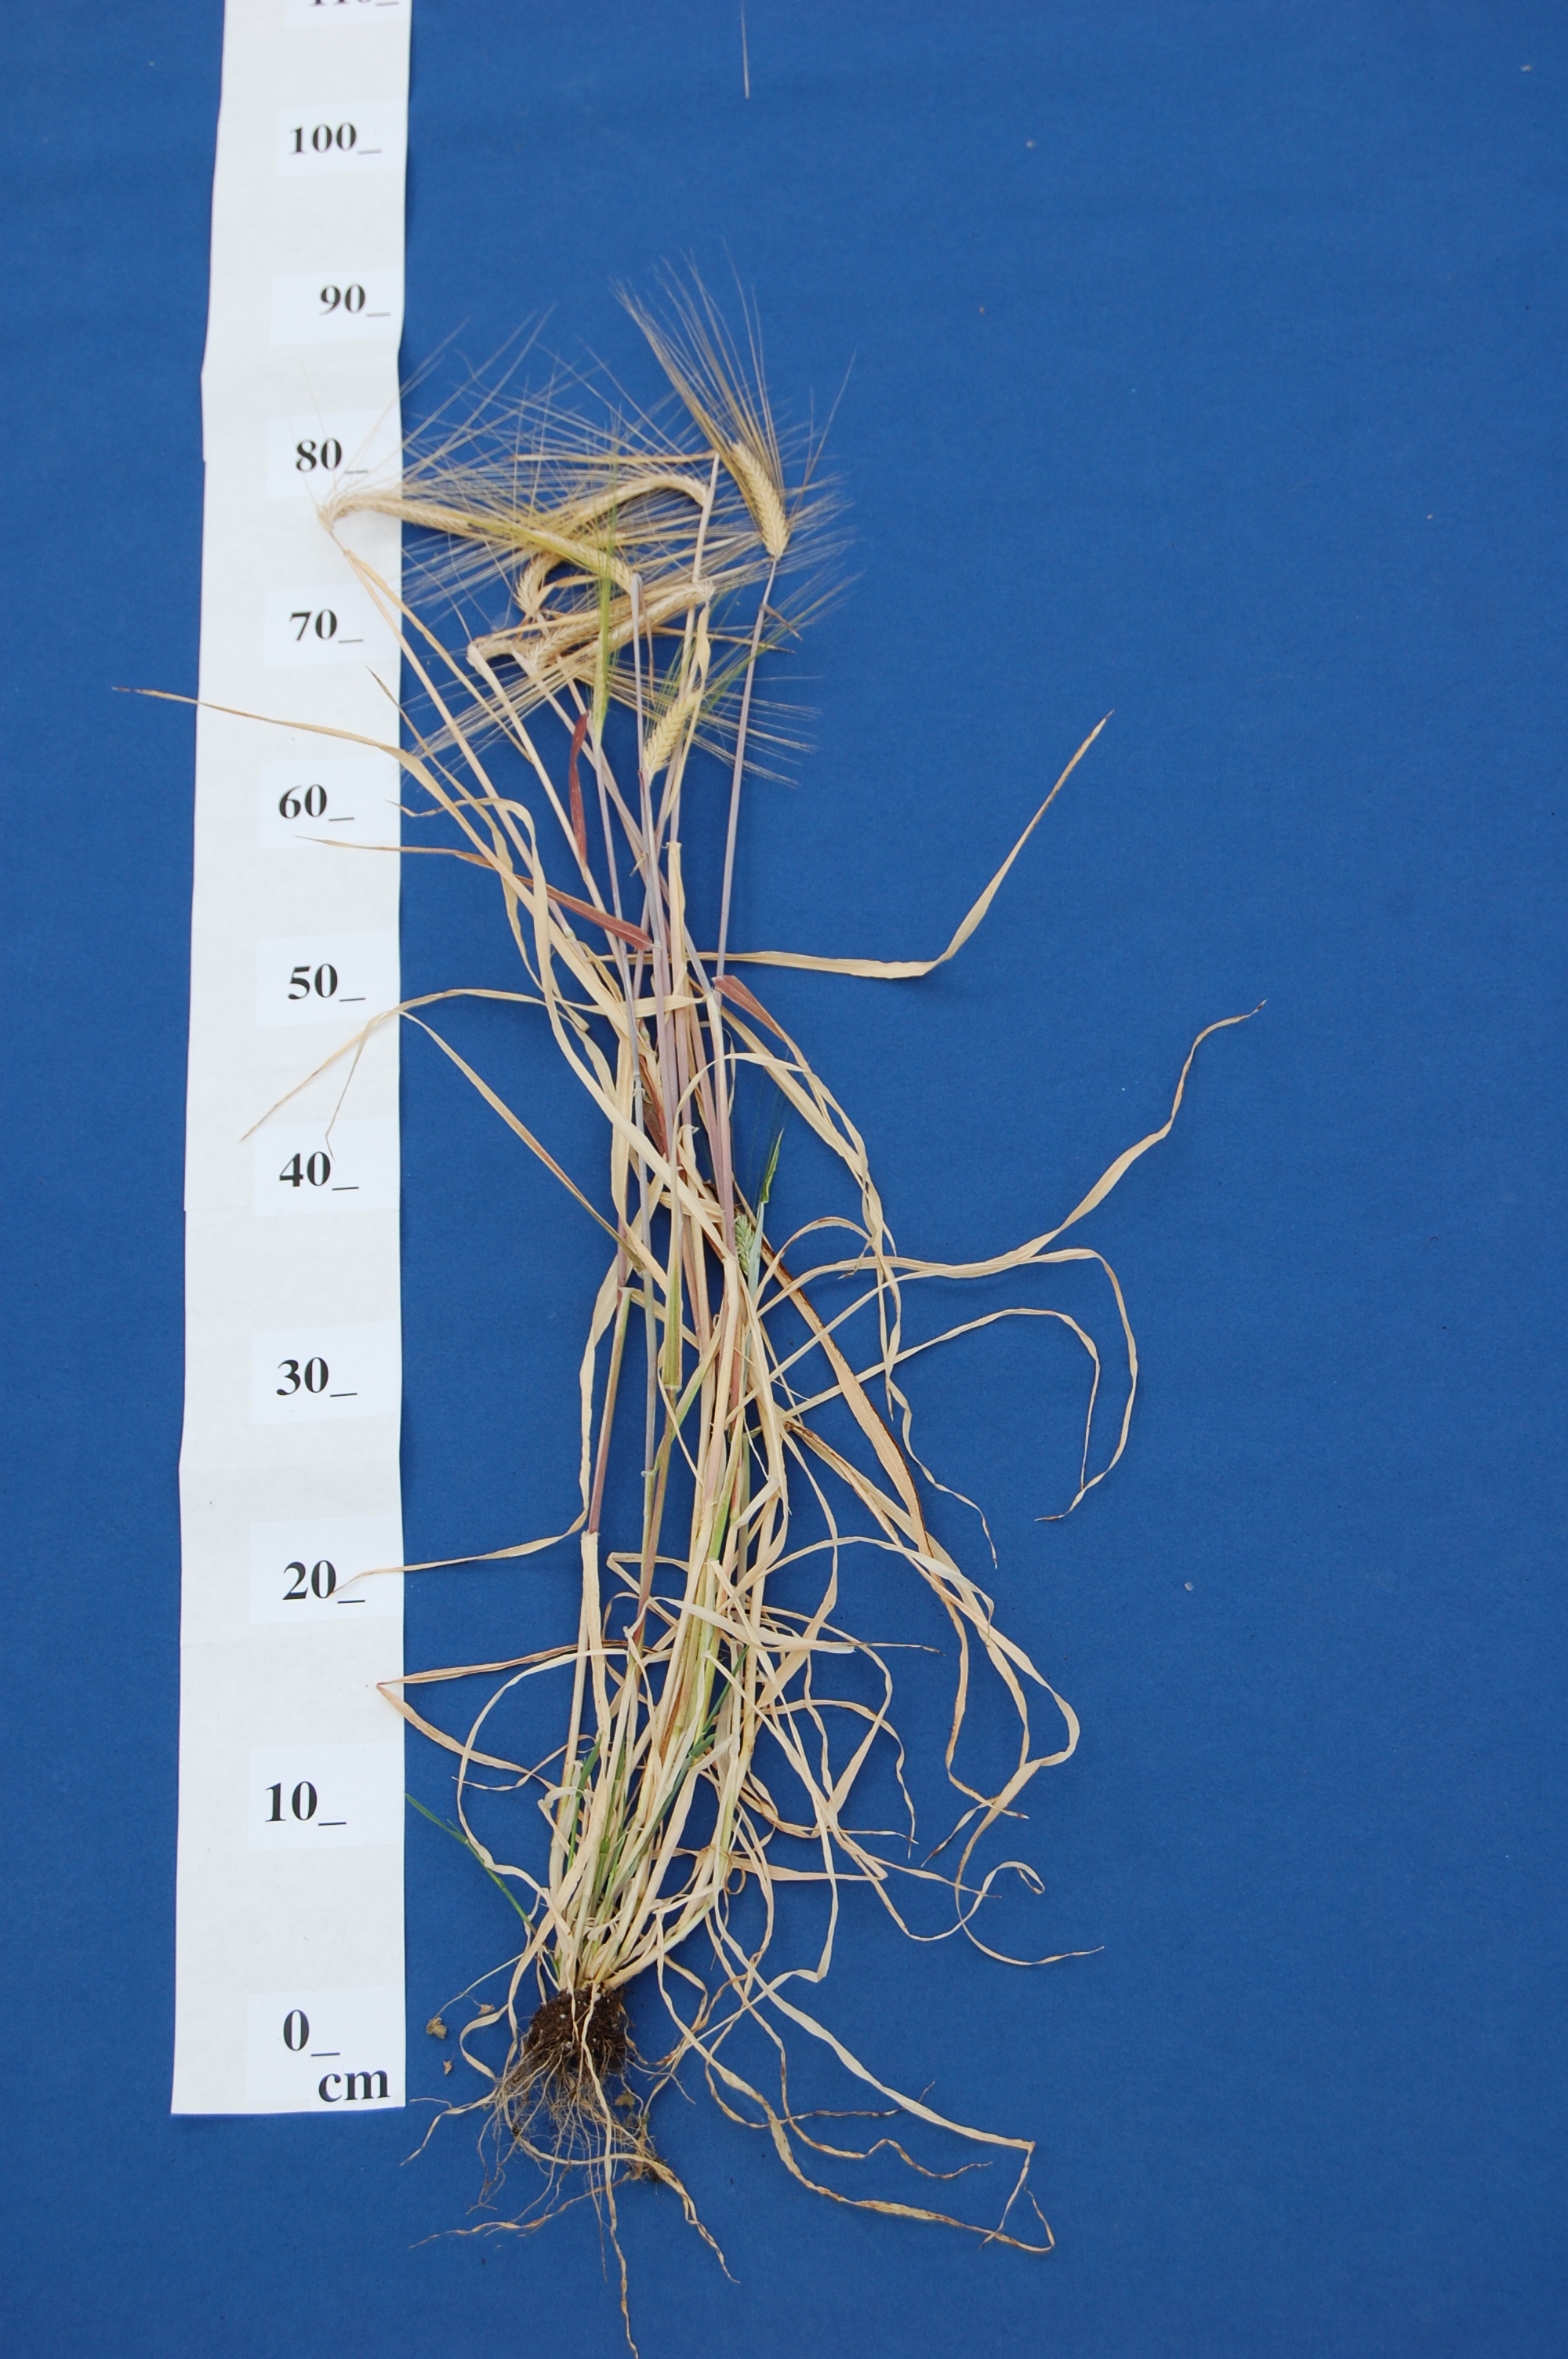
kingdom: Plantae
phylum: Tracheophyta
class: Liliopsida
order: Poales
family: Poaceae
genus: Hordeum
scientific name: Hordeum vulgare
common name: Common barley
